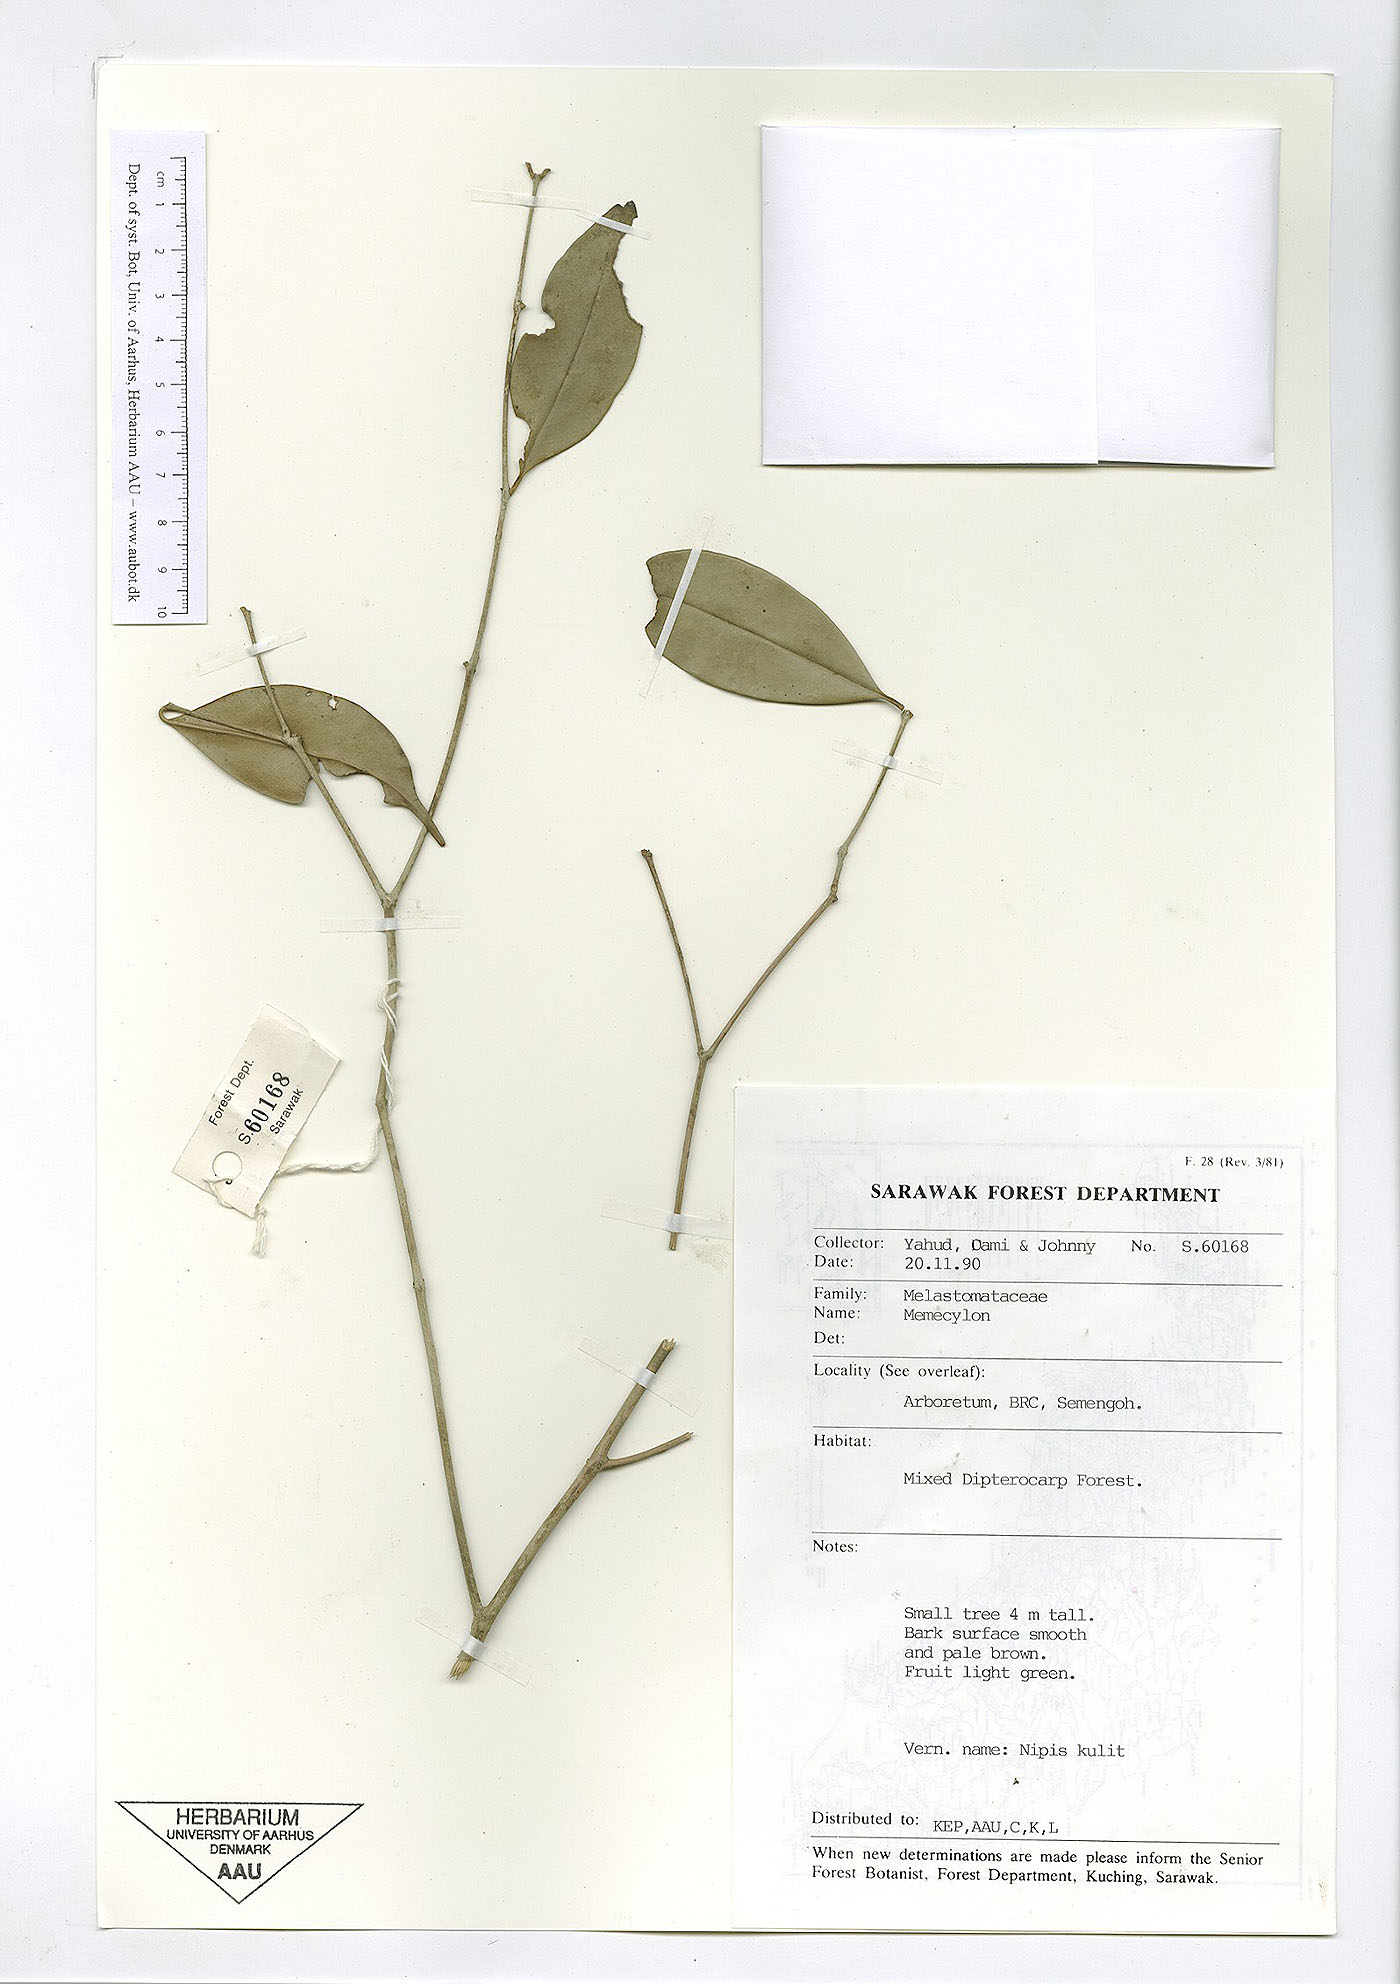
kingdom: Plantae
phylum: Tracheophyta
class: Magnoliopsida
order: Myrtales
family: Melastomataceae
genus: Memecylon
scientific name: Memecylon
